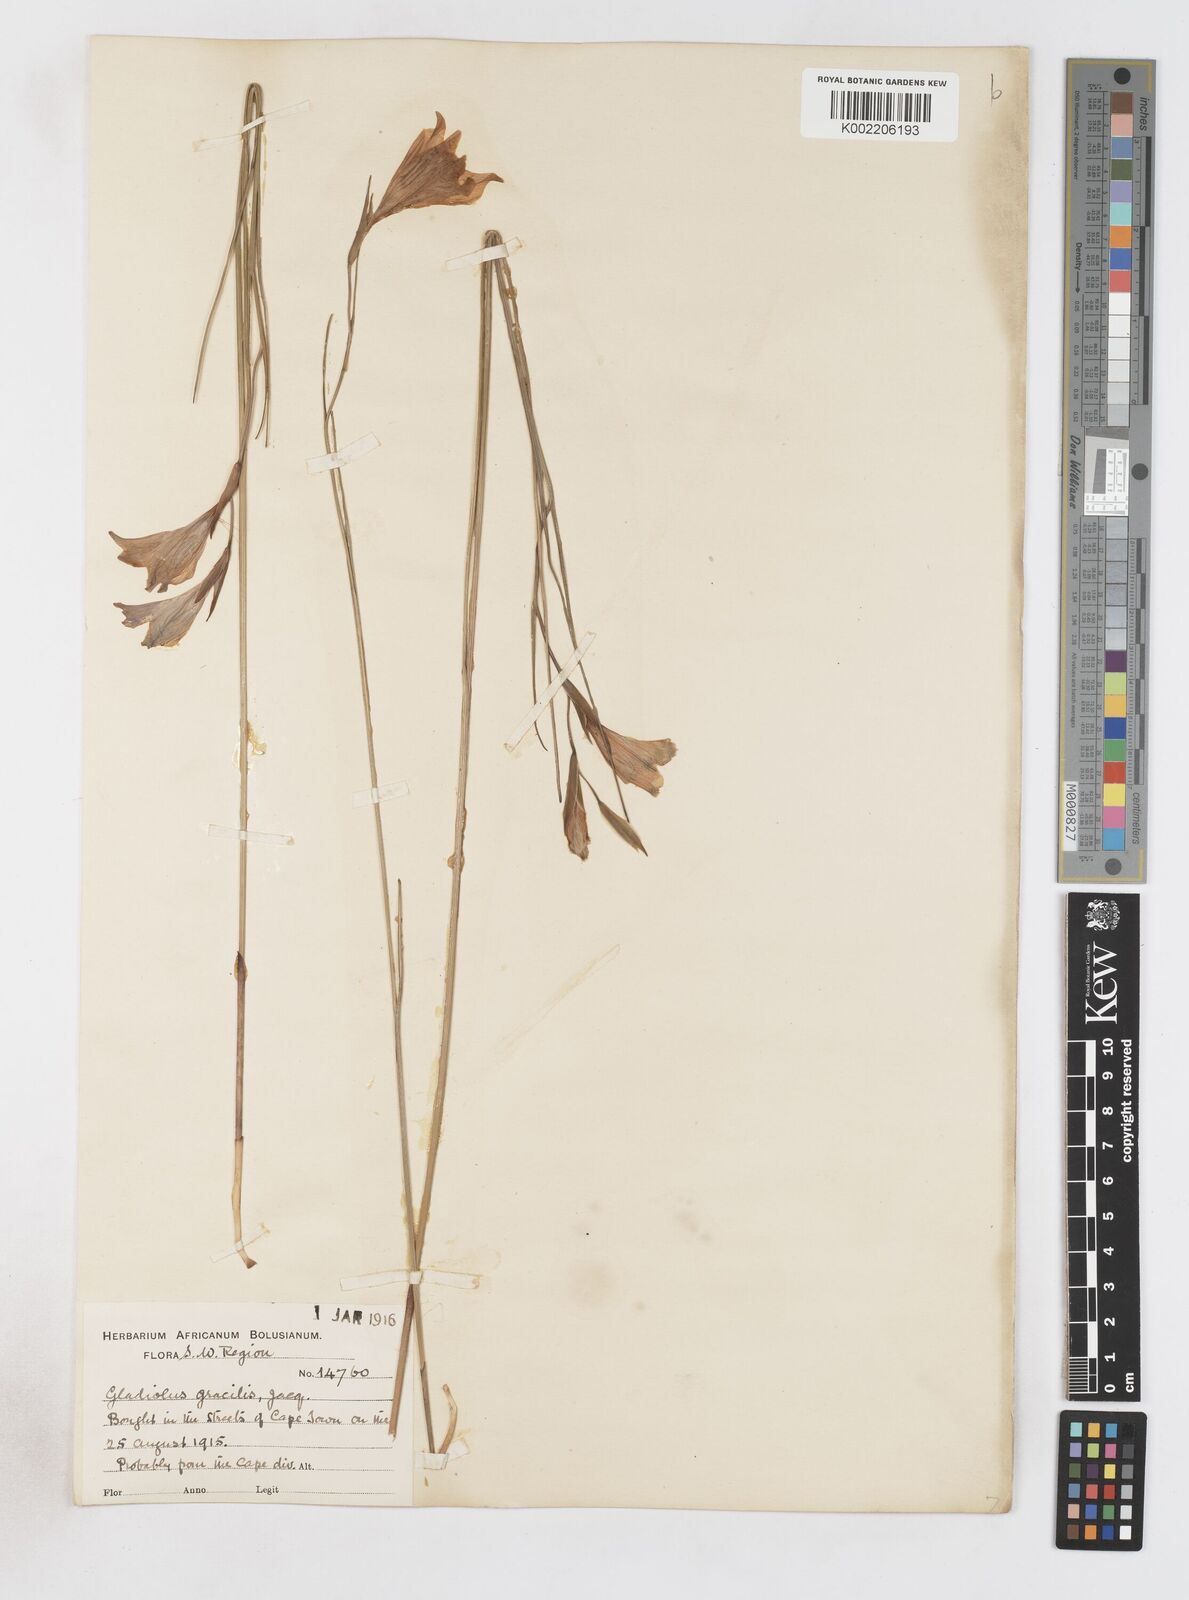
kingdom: Plantae
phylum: Tracheophyta
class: Liliopsida
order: Asparagales
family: Iridaceae
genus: Gladiolus
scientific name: Gladiolus gracilis
